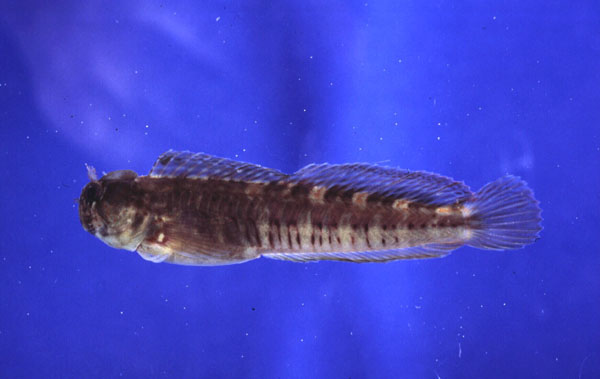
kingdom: Animalia
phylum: Chordata
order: Perciformes
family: Blenniidae
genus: Istiblennius
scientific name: Istiblennius dussumieri
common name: Dussumier's rockskipper
